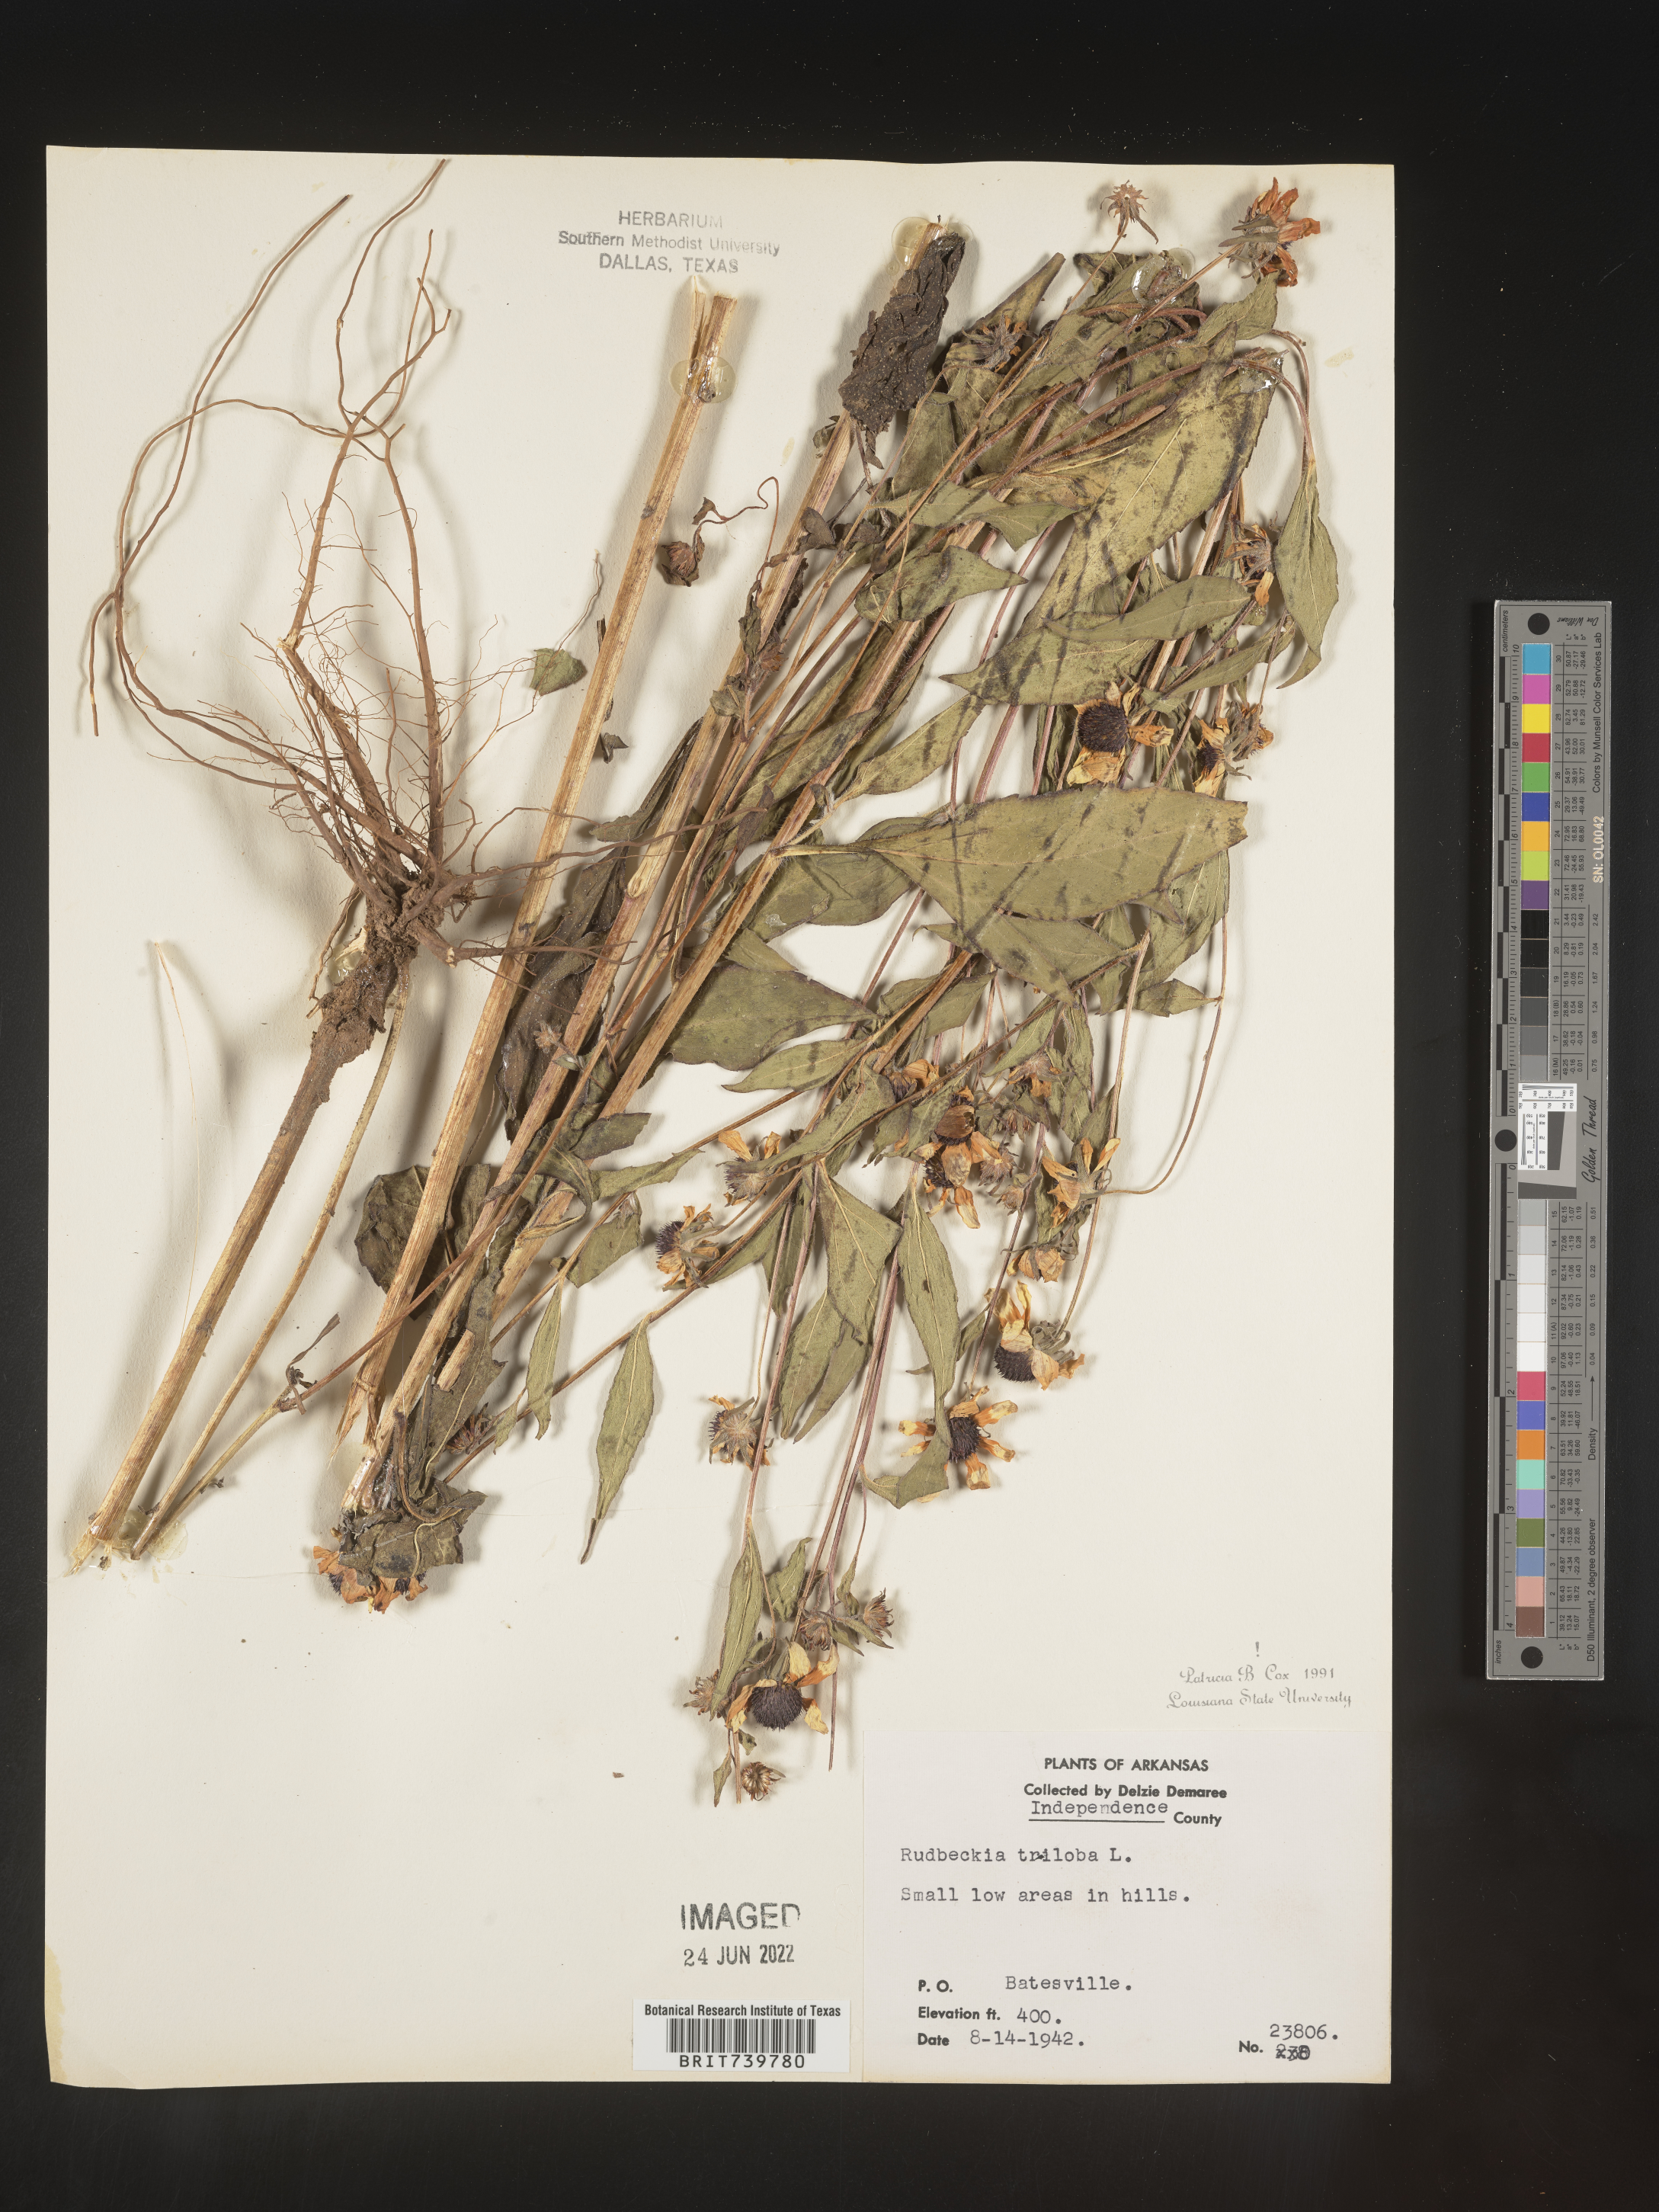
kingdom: Plantae
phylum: Tracheophyta
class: Magnoliopsida
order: Asterales
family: Asteraceae
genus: Rudbeckia
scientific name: Rudbeckia triloba
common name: Thin-leaved coneflower
